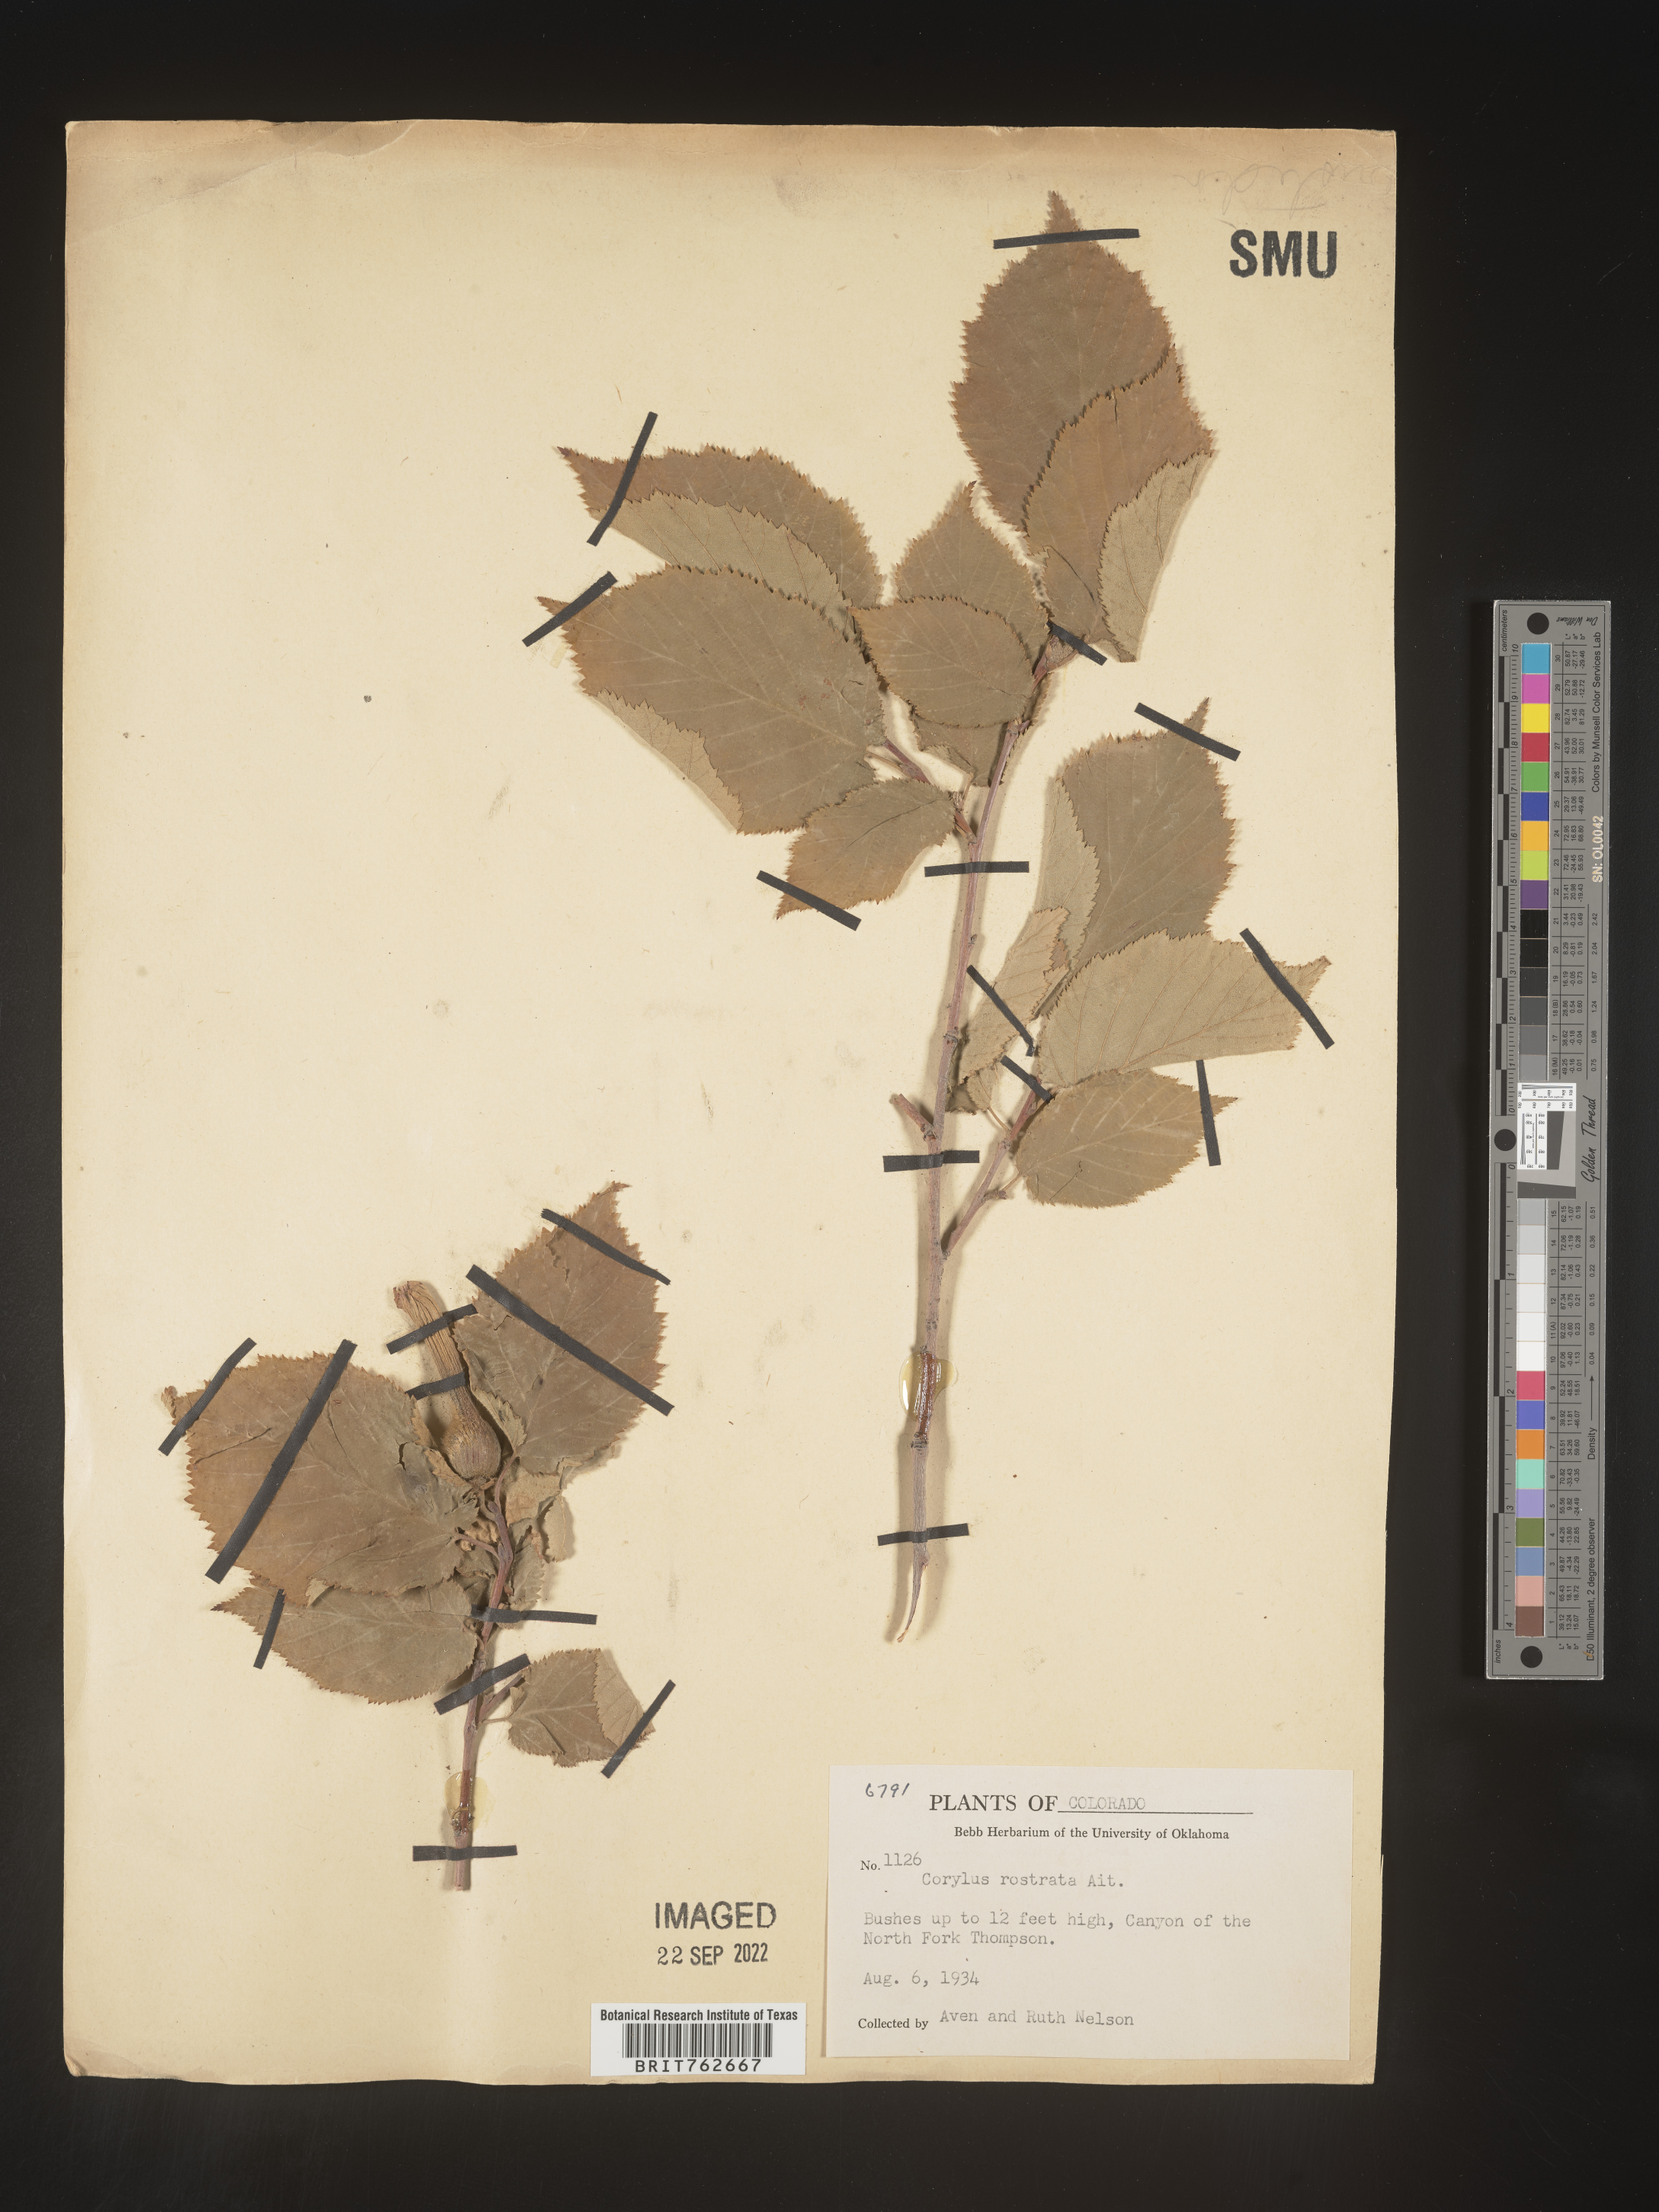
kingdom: Plantae
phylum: Tracheophyta
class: Magnoliopsida
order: Fagales
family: Betulaceae
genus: Corylus
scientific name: Corylus cornuta
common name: Beaked hazel
